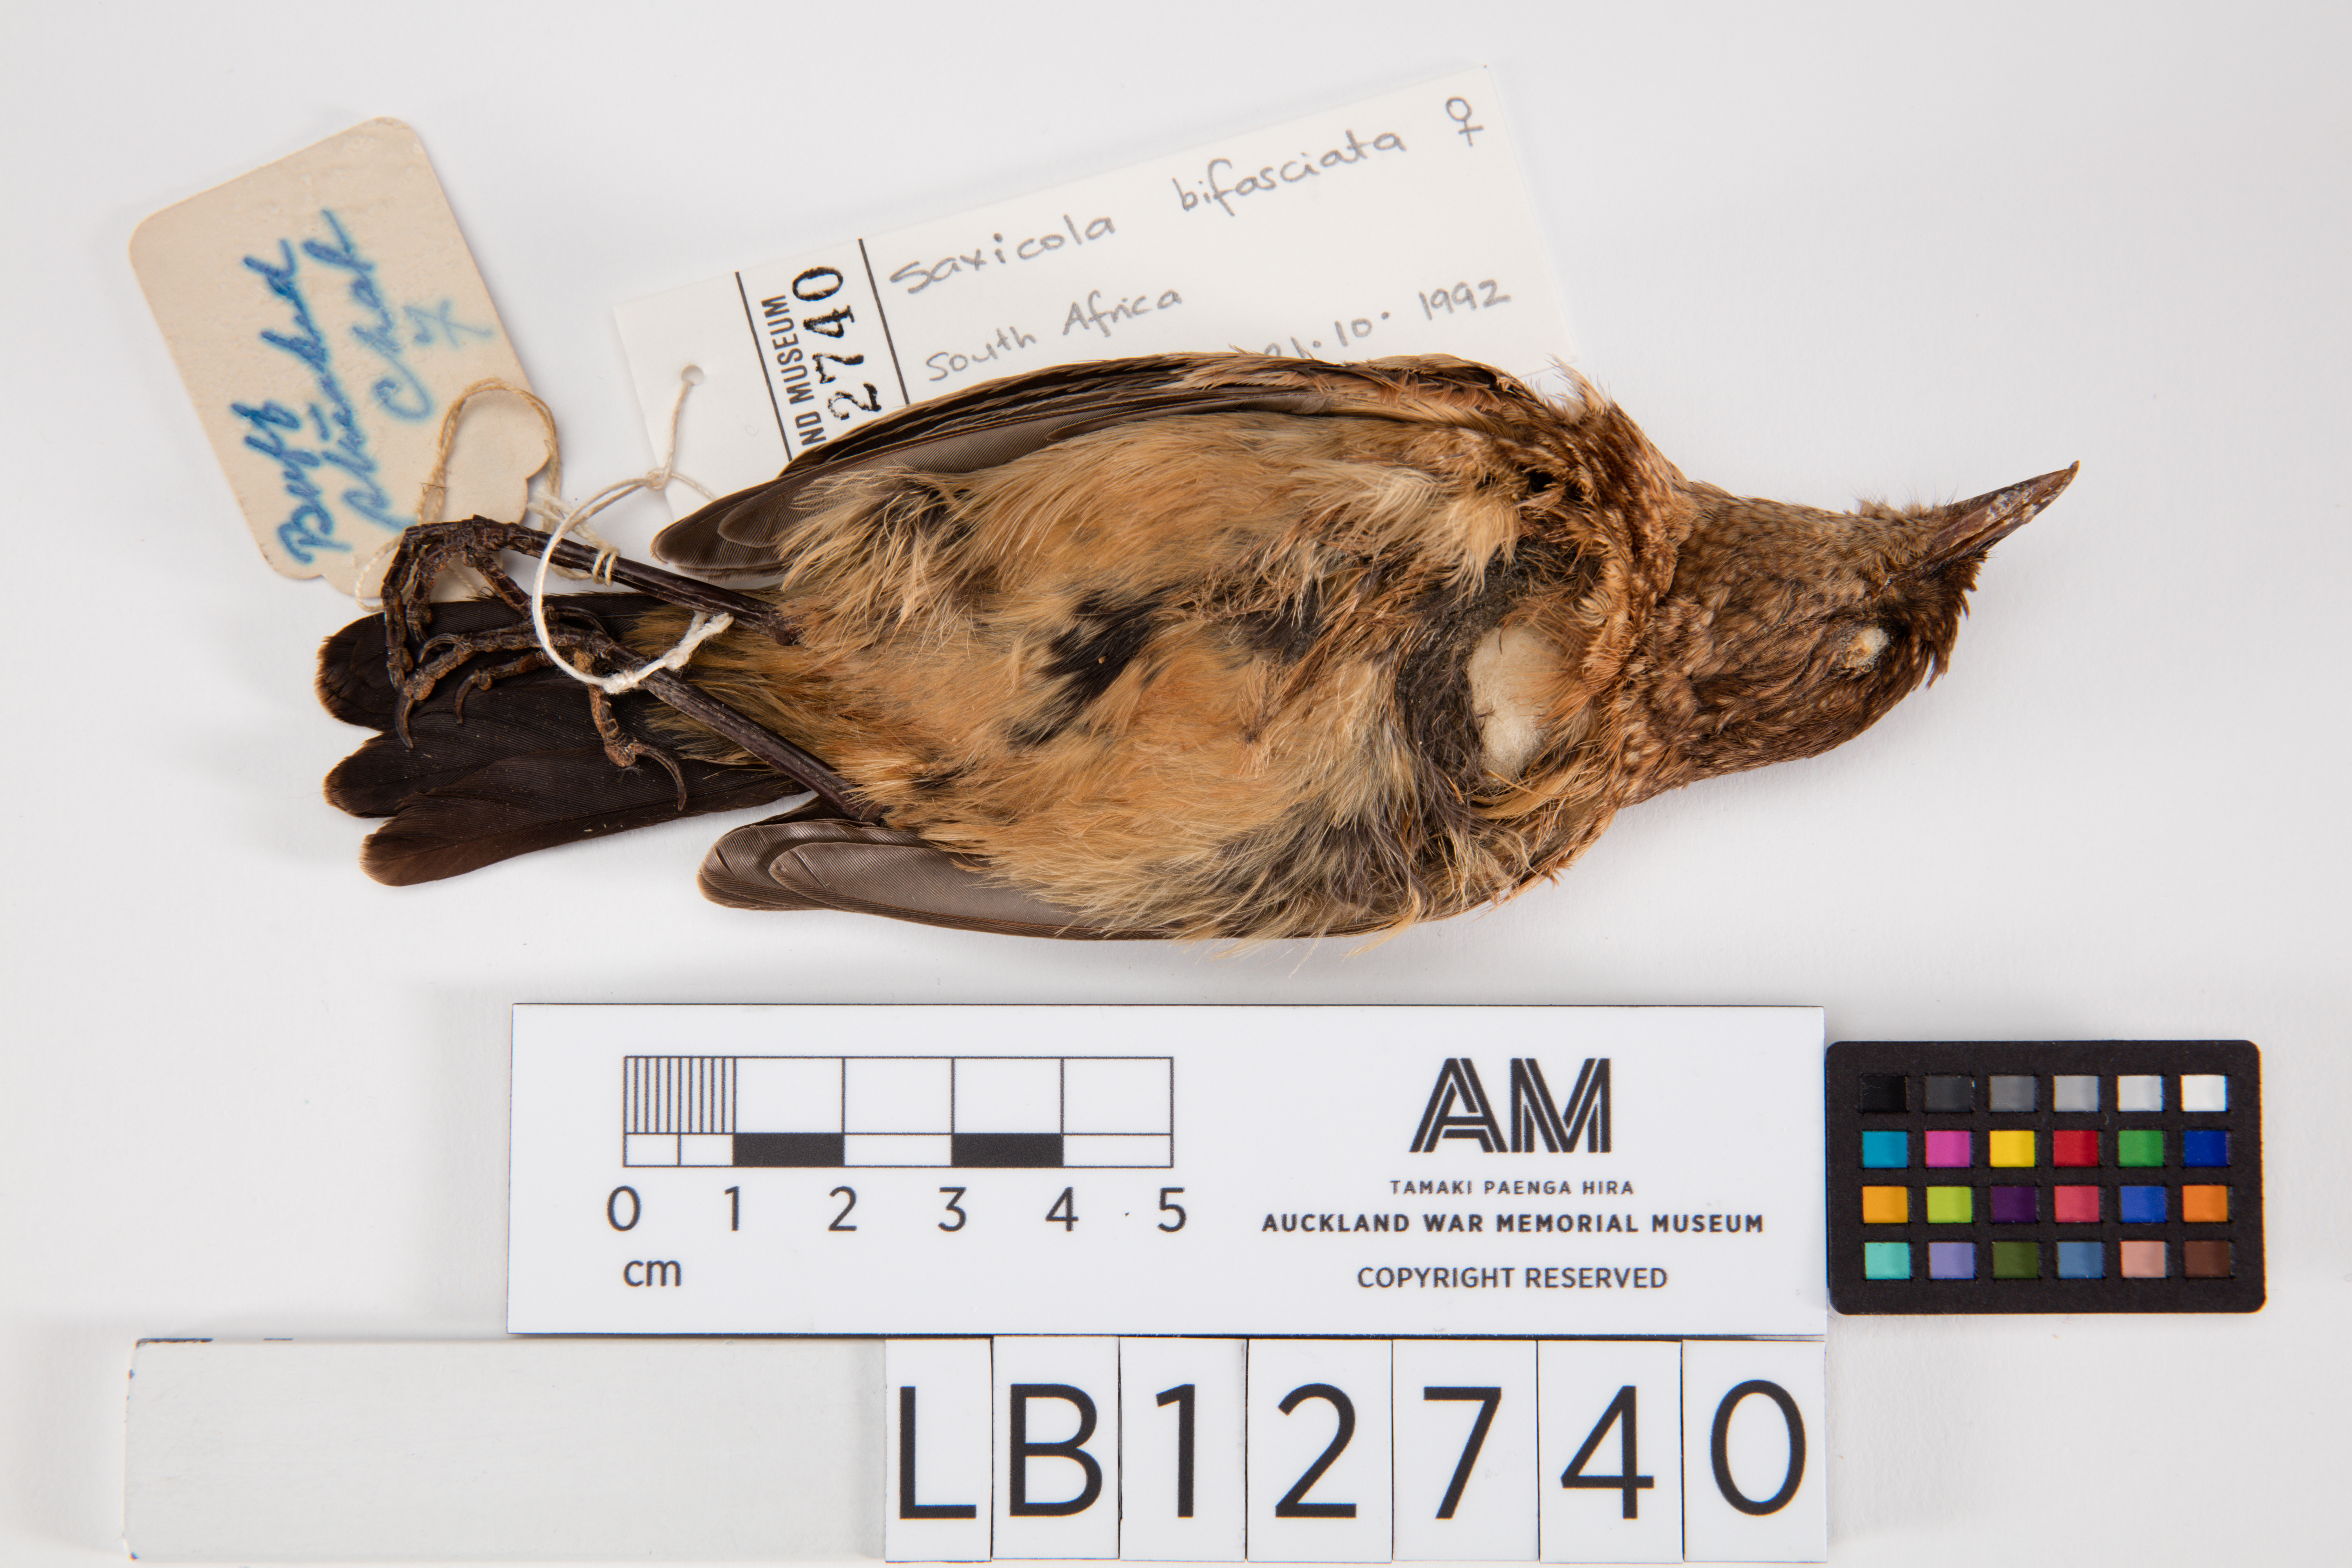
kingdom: Animalia
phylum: Chordata
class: Aves
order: Passeriformes
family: Muscicapidae
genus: Campicoloides
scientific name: Campicoloides bifasciatus
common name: Buff-streaked chat
